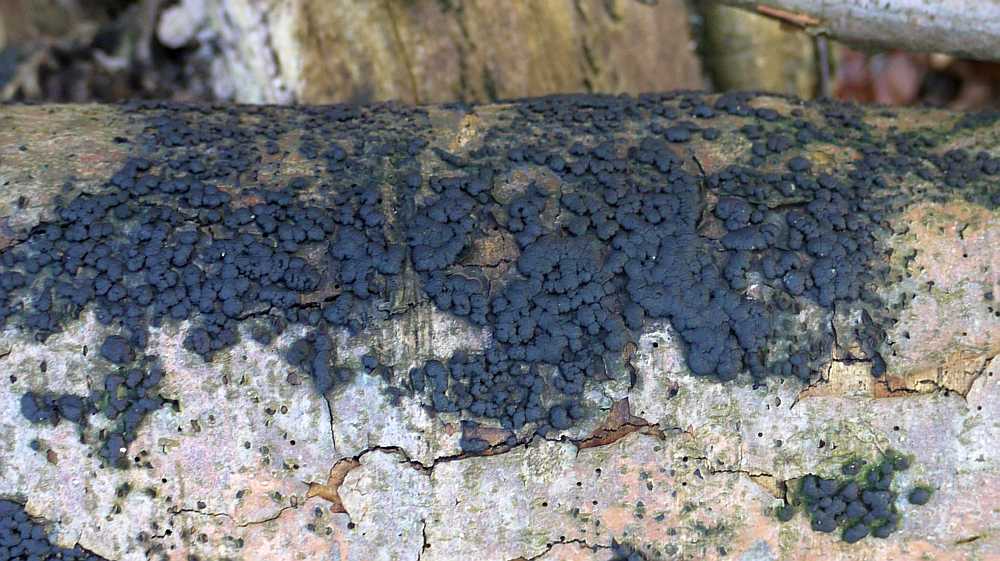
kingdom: Fungi
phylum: Ascomycota
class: Sordariomycetes
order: Xylariales
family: Hypoxylaceae
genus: Jackrogersella
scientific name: Jackrogersella cohaerens
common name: sammenflydende kulbær
